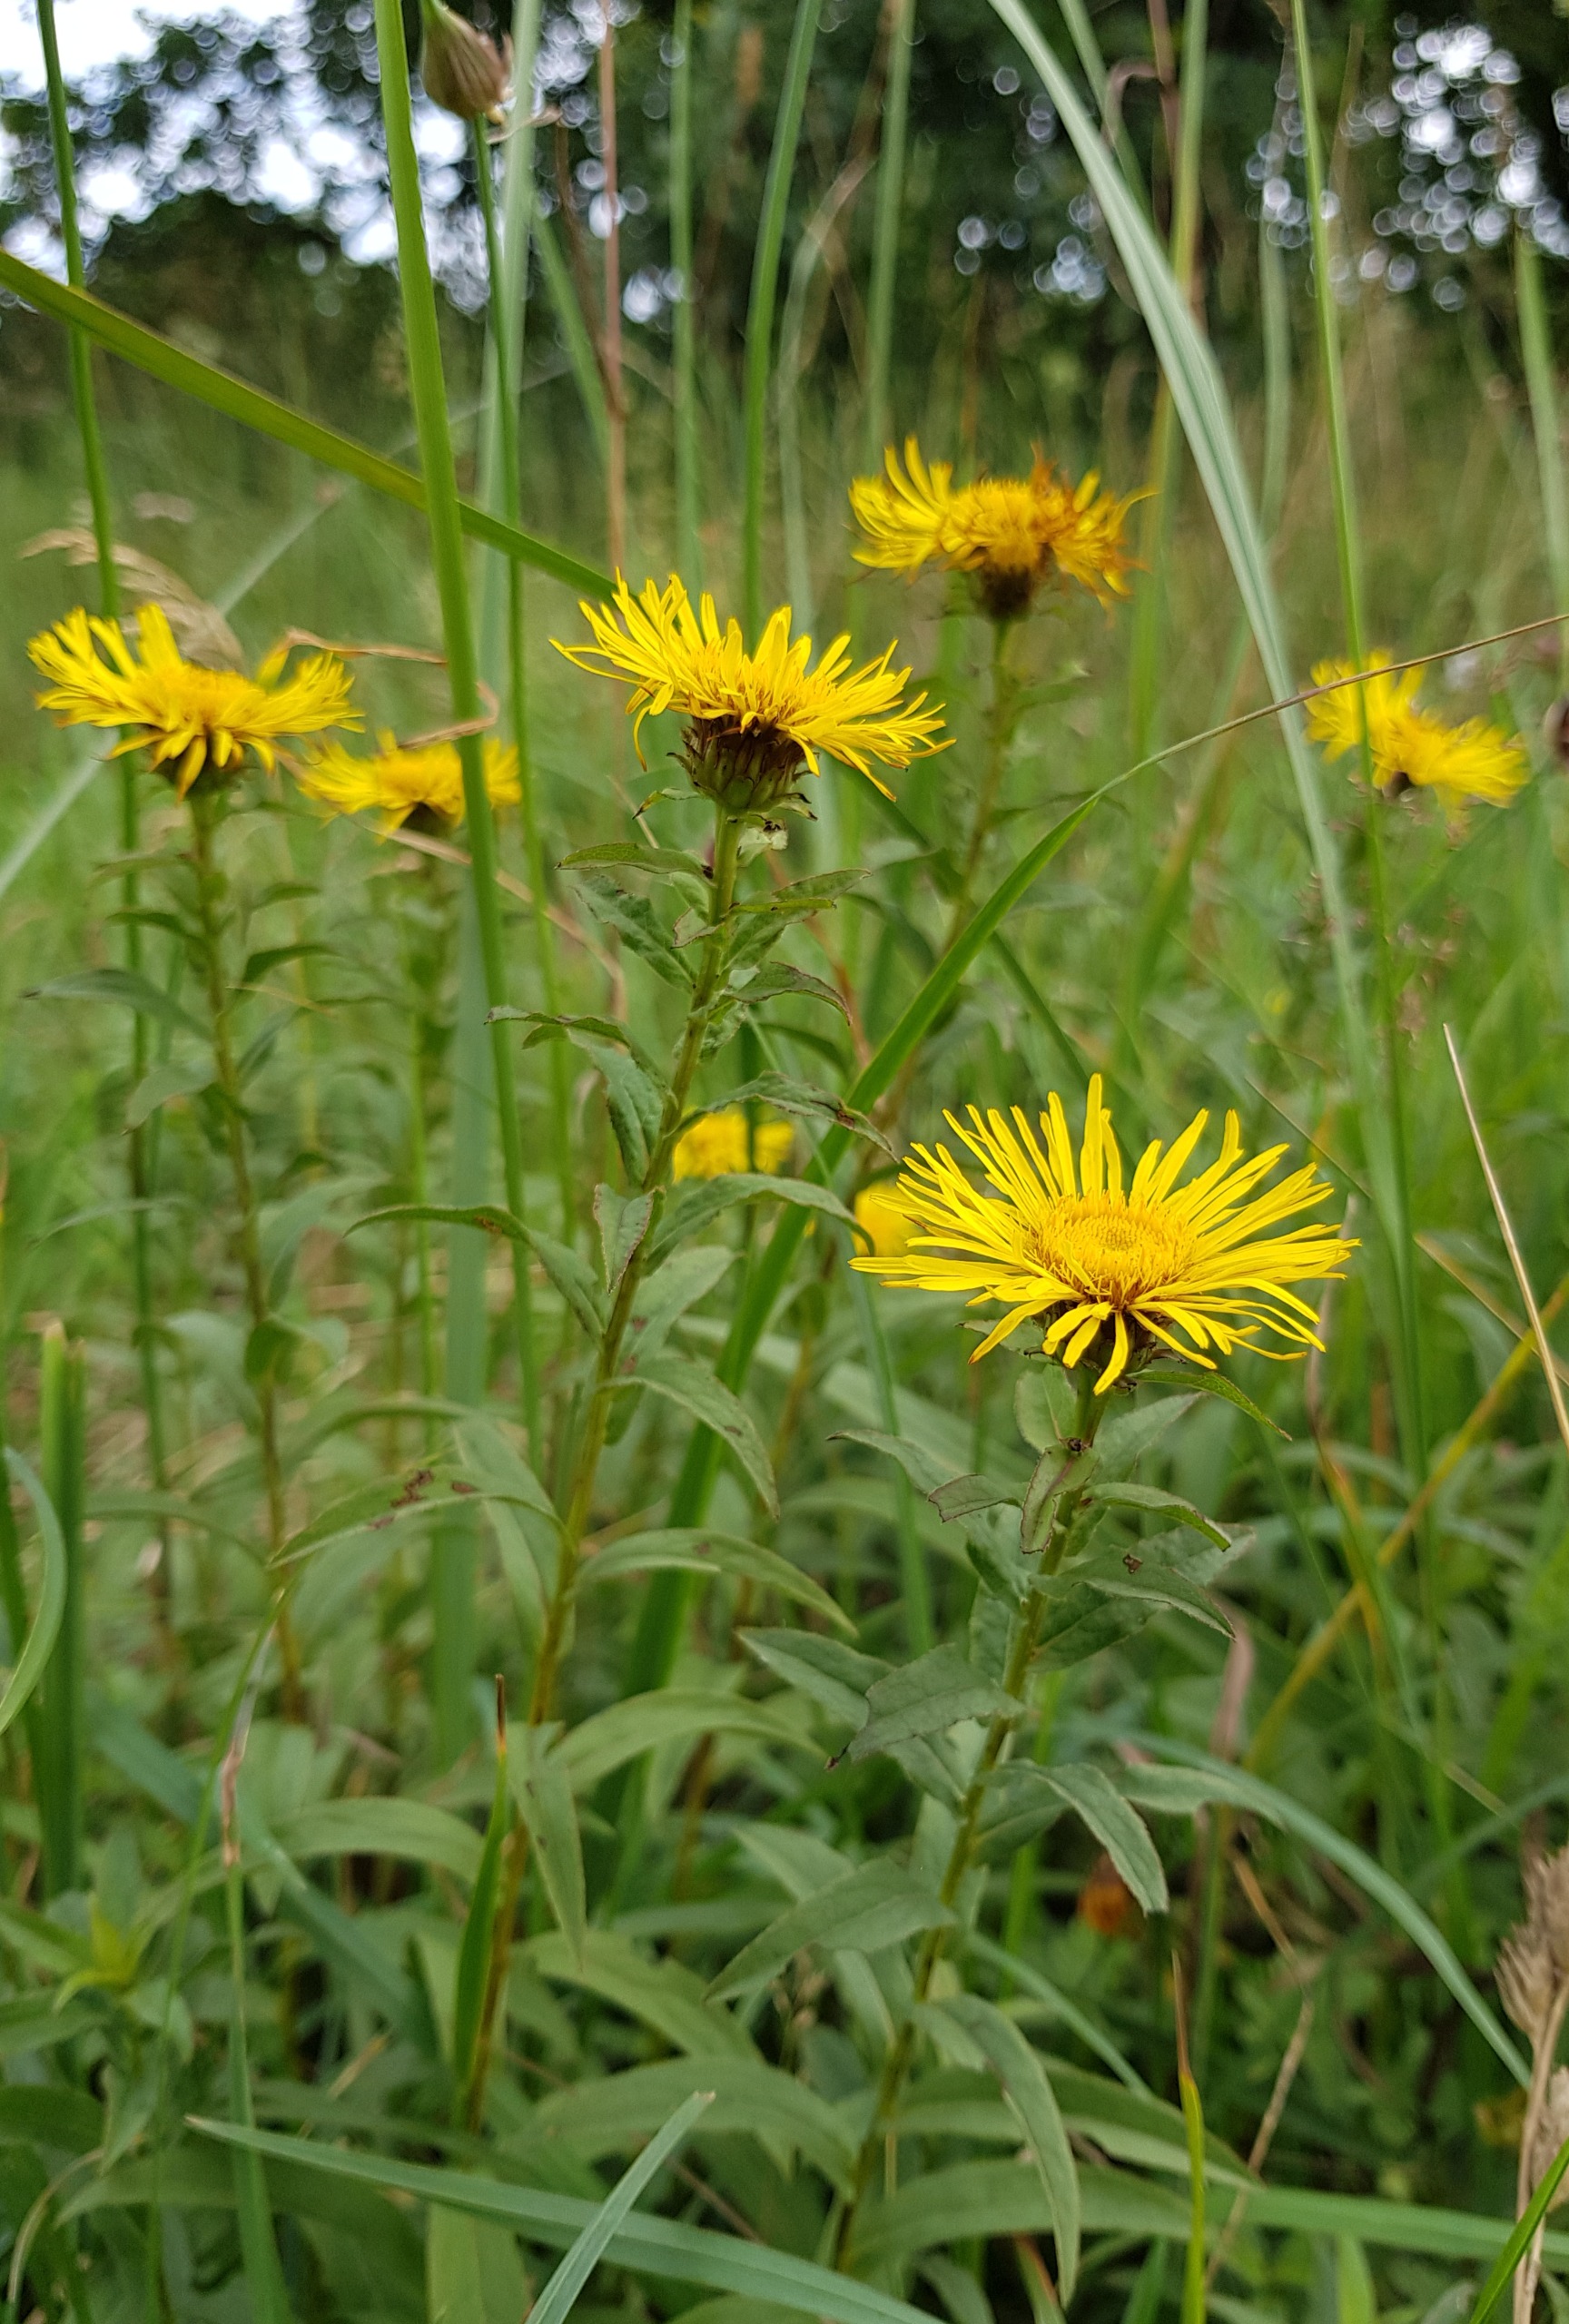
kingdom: Plantae
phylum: Tracheophyta
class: Magnoliopsida
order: Asterales
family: Asteraceae
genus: Pentanema
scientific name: Pentanema salicinum
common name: Pile-alant
